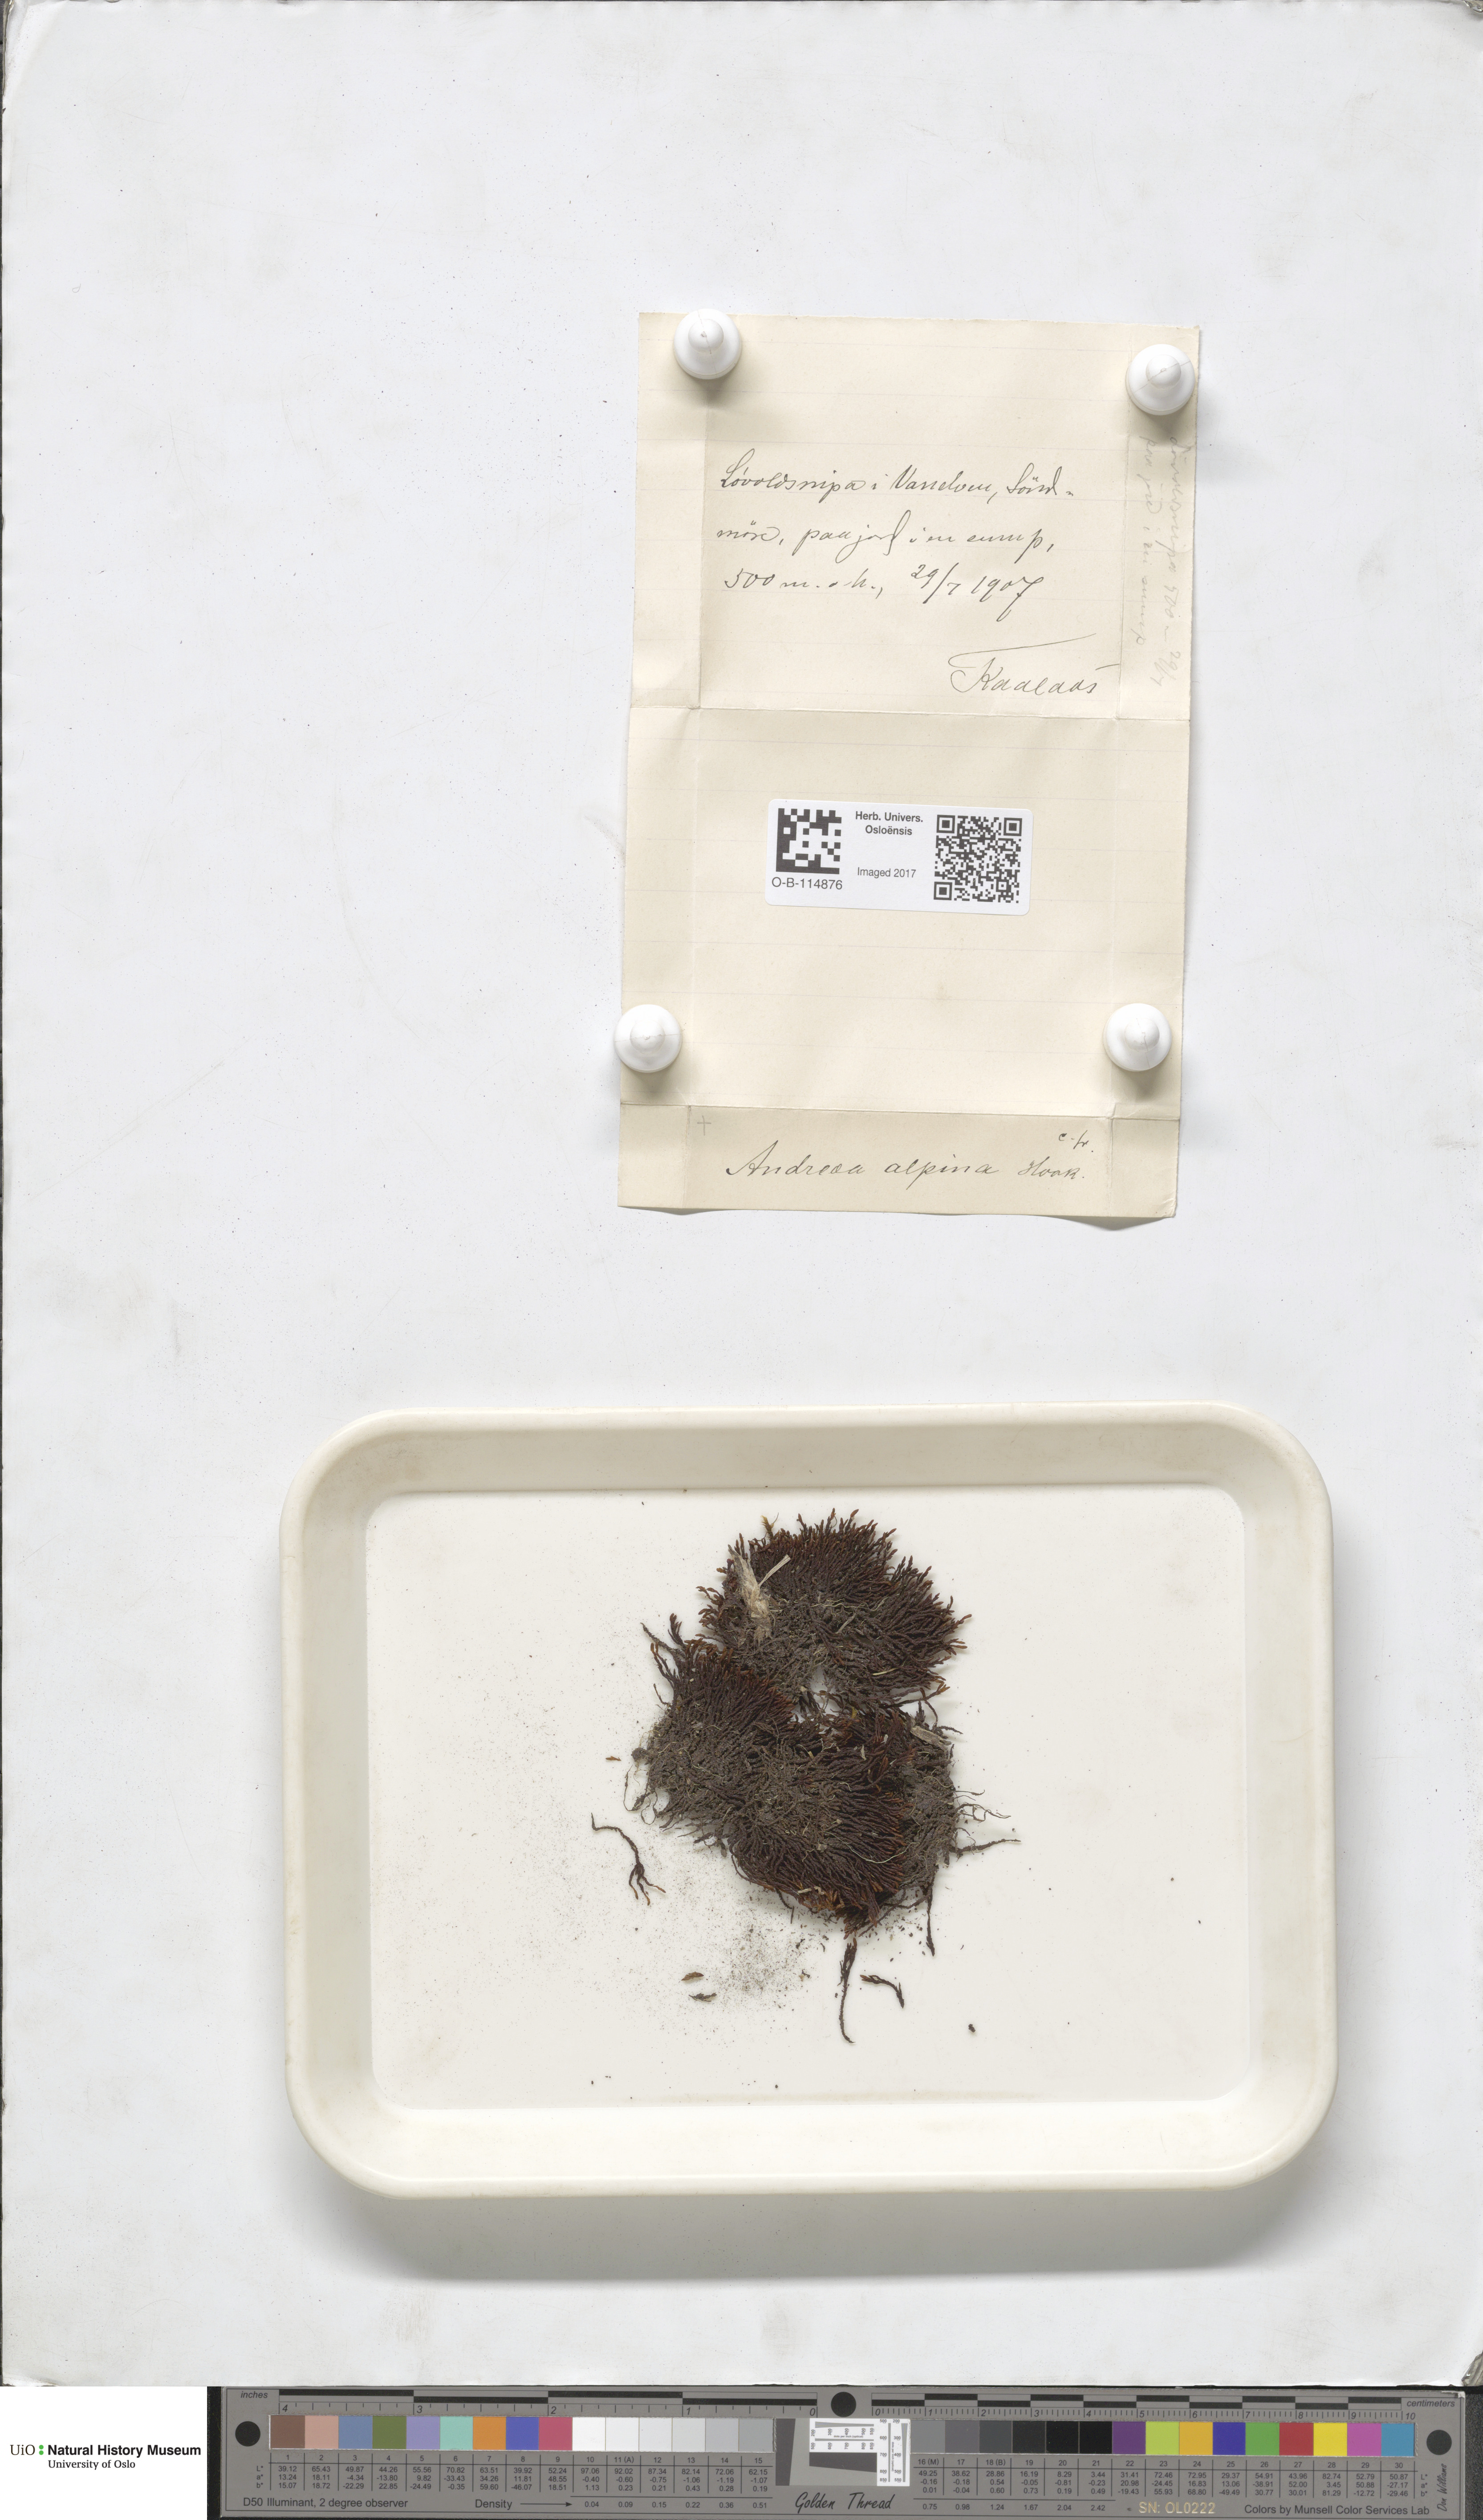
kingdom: Plantae
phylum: Bryophyta
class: Andreaeopsida
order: Andreaeales
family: Andreaeaceae
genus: Andreaea
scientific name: Andreaea hookeri
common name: Alpine rock-moss
